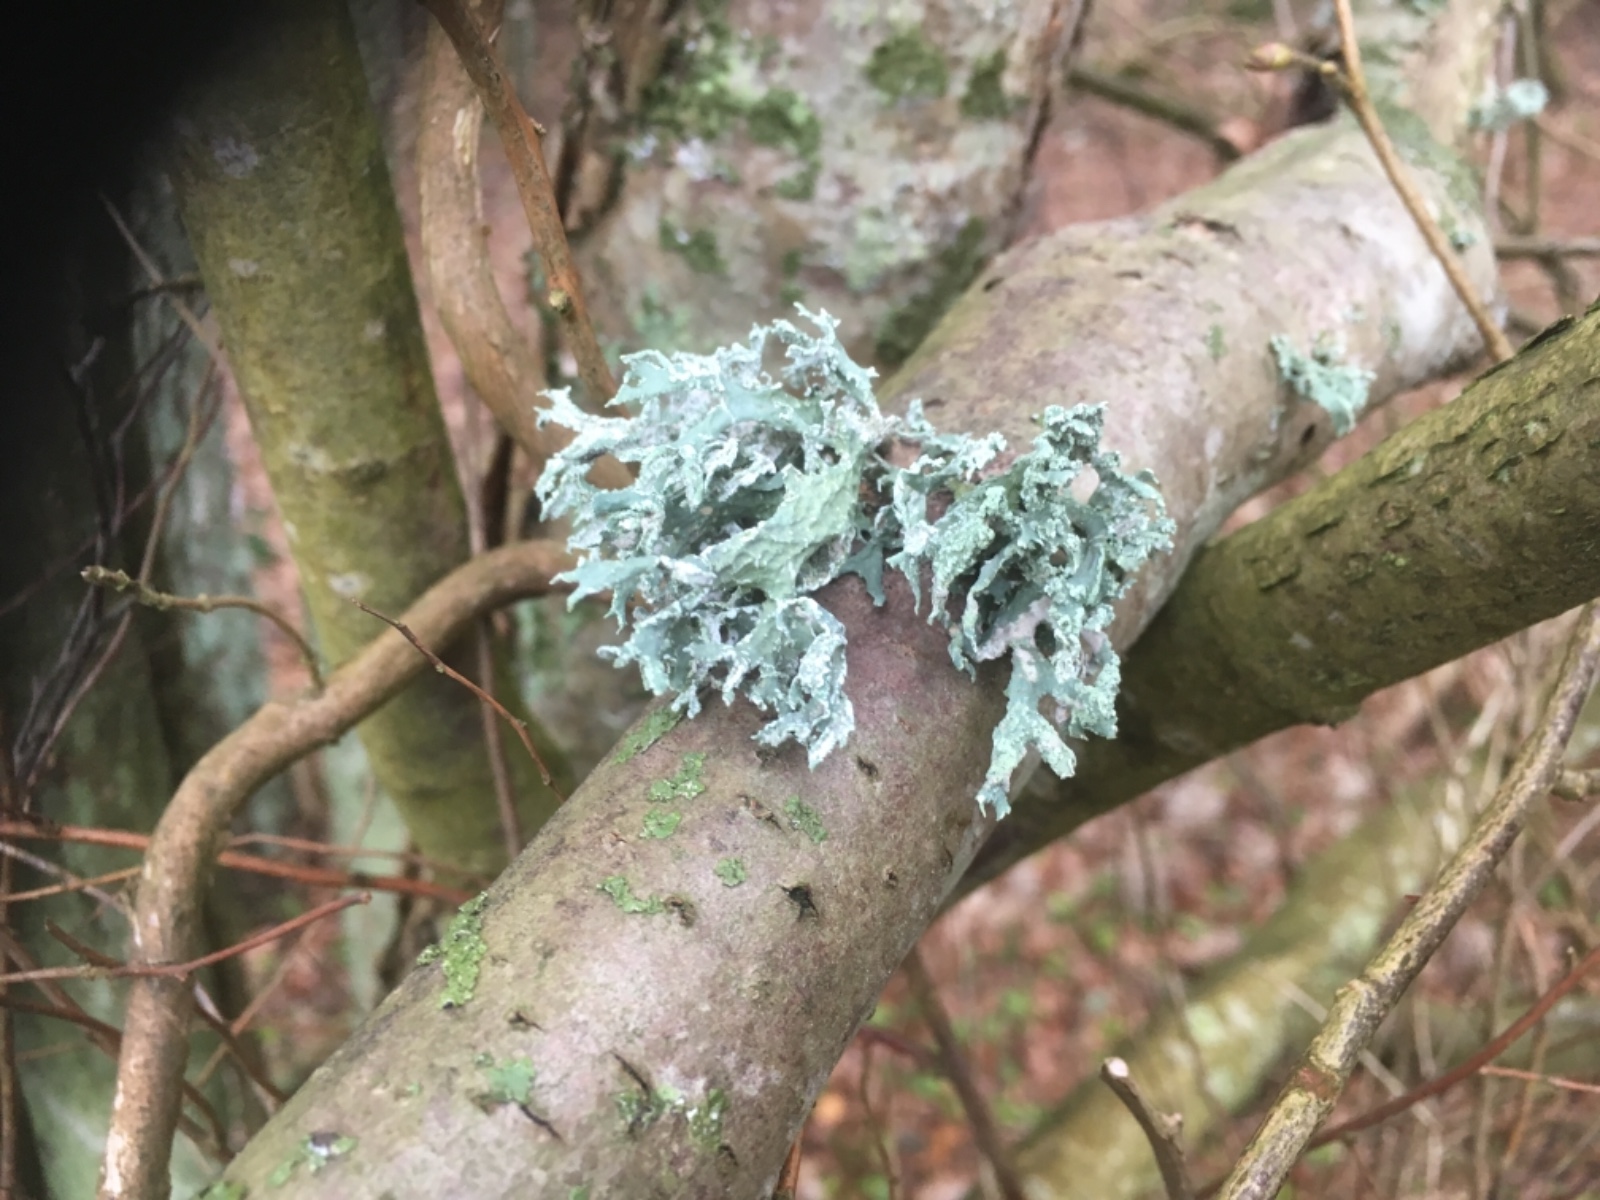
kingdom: Fungi
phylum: Ascomycota
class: Lecanoromycetes
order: Lecanorales
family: Parmeliaceae
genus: Evernia
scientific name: Evernia prunastri
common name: almindelig slåenlav
